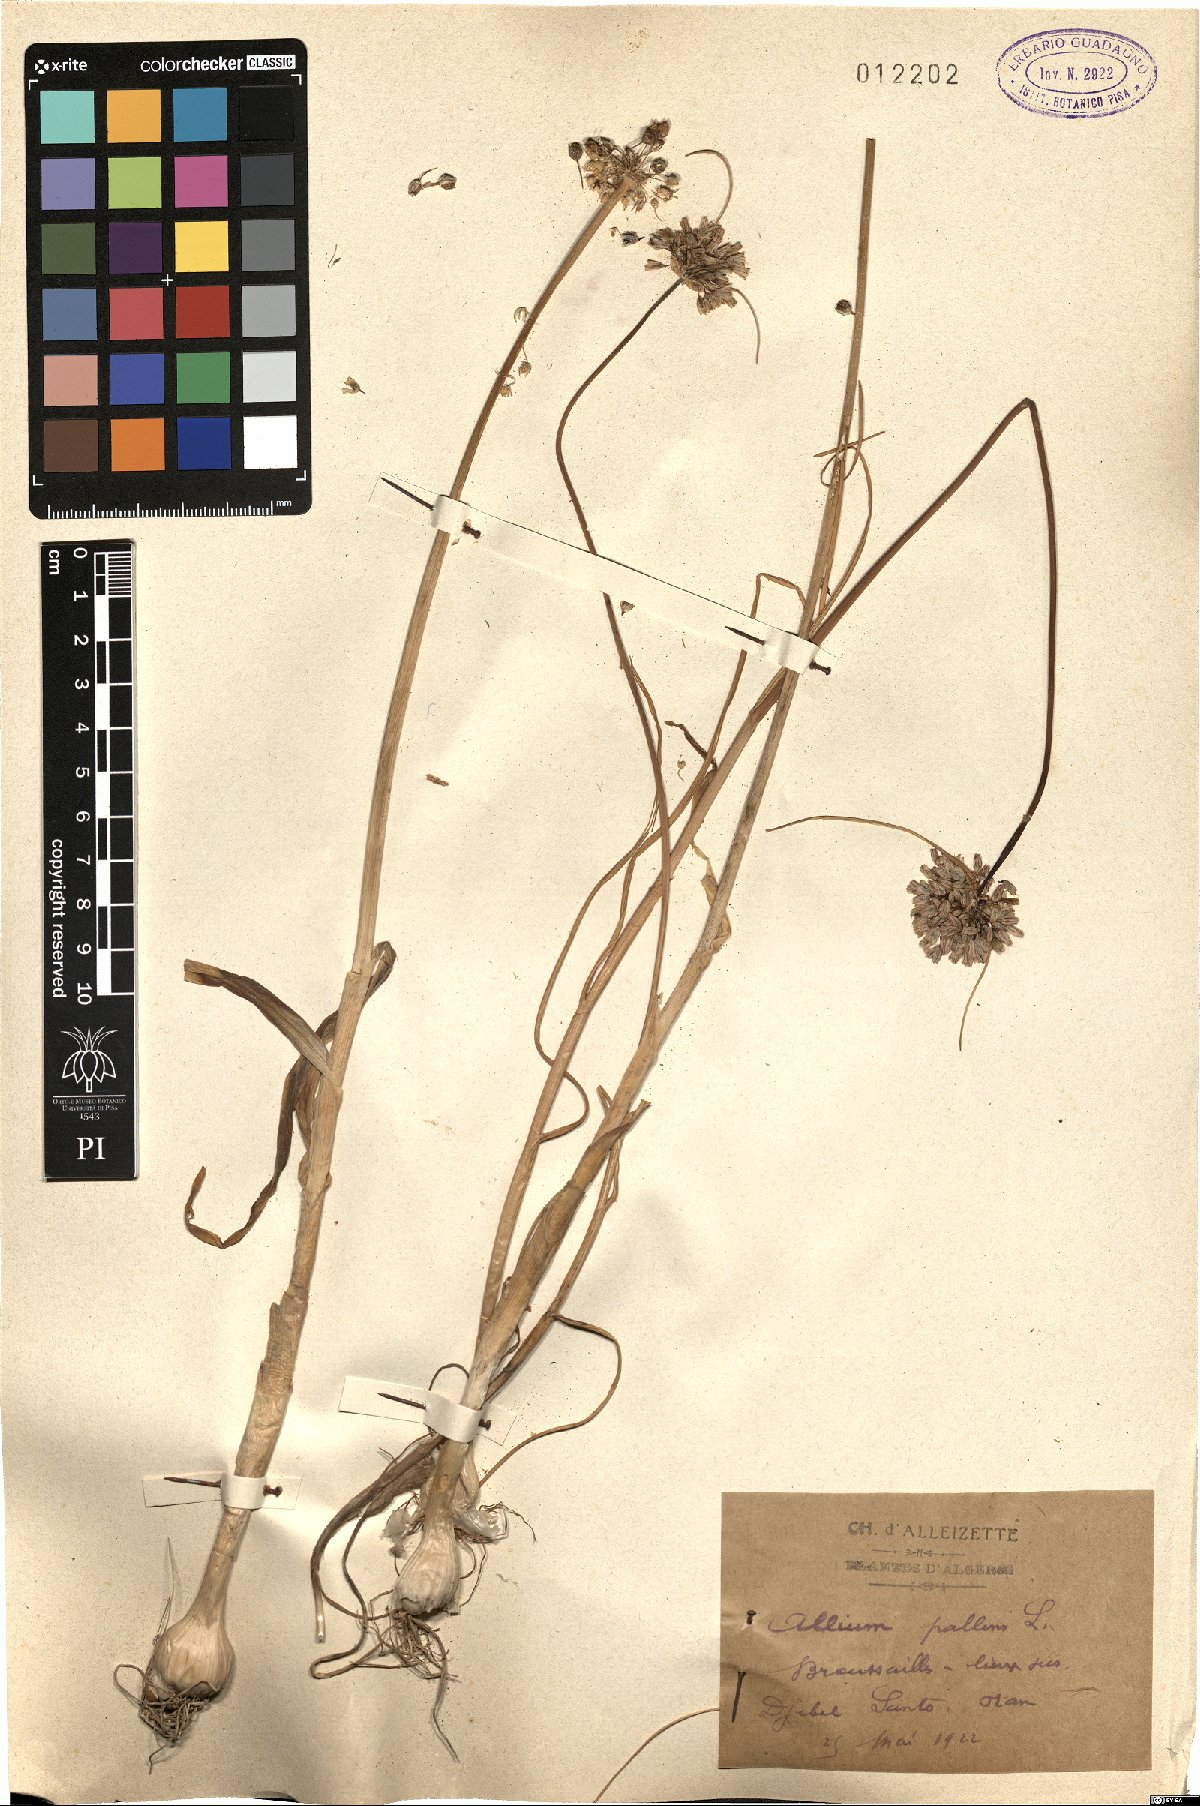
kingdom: Plantae
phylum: Tracheophyta
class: Liliopsida
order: Asparagales
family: Amaryllidaceae
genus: Allium
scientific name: Allium pallens
